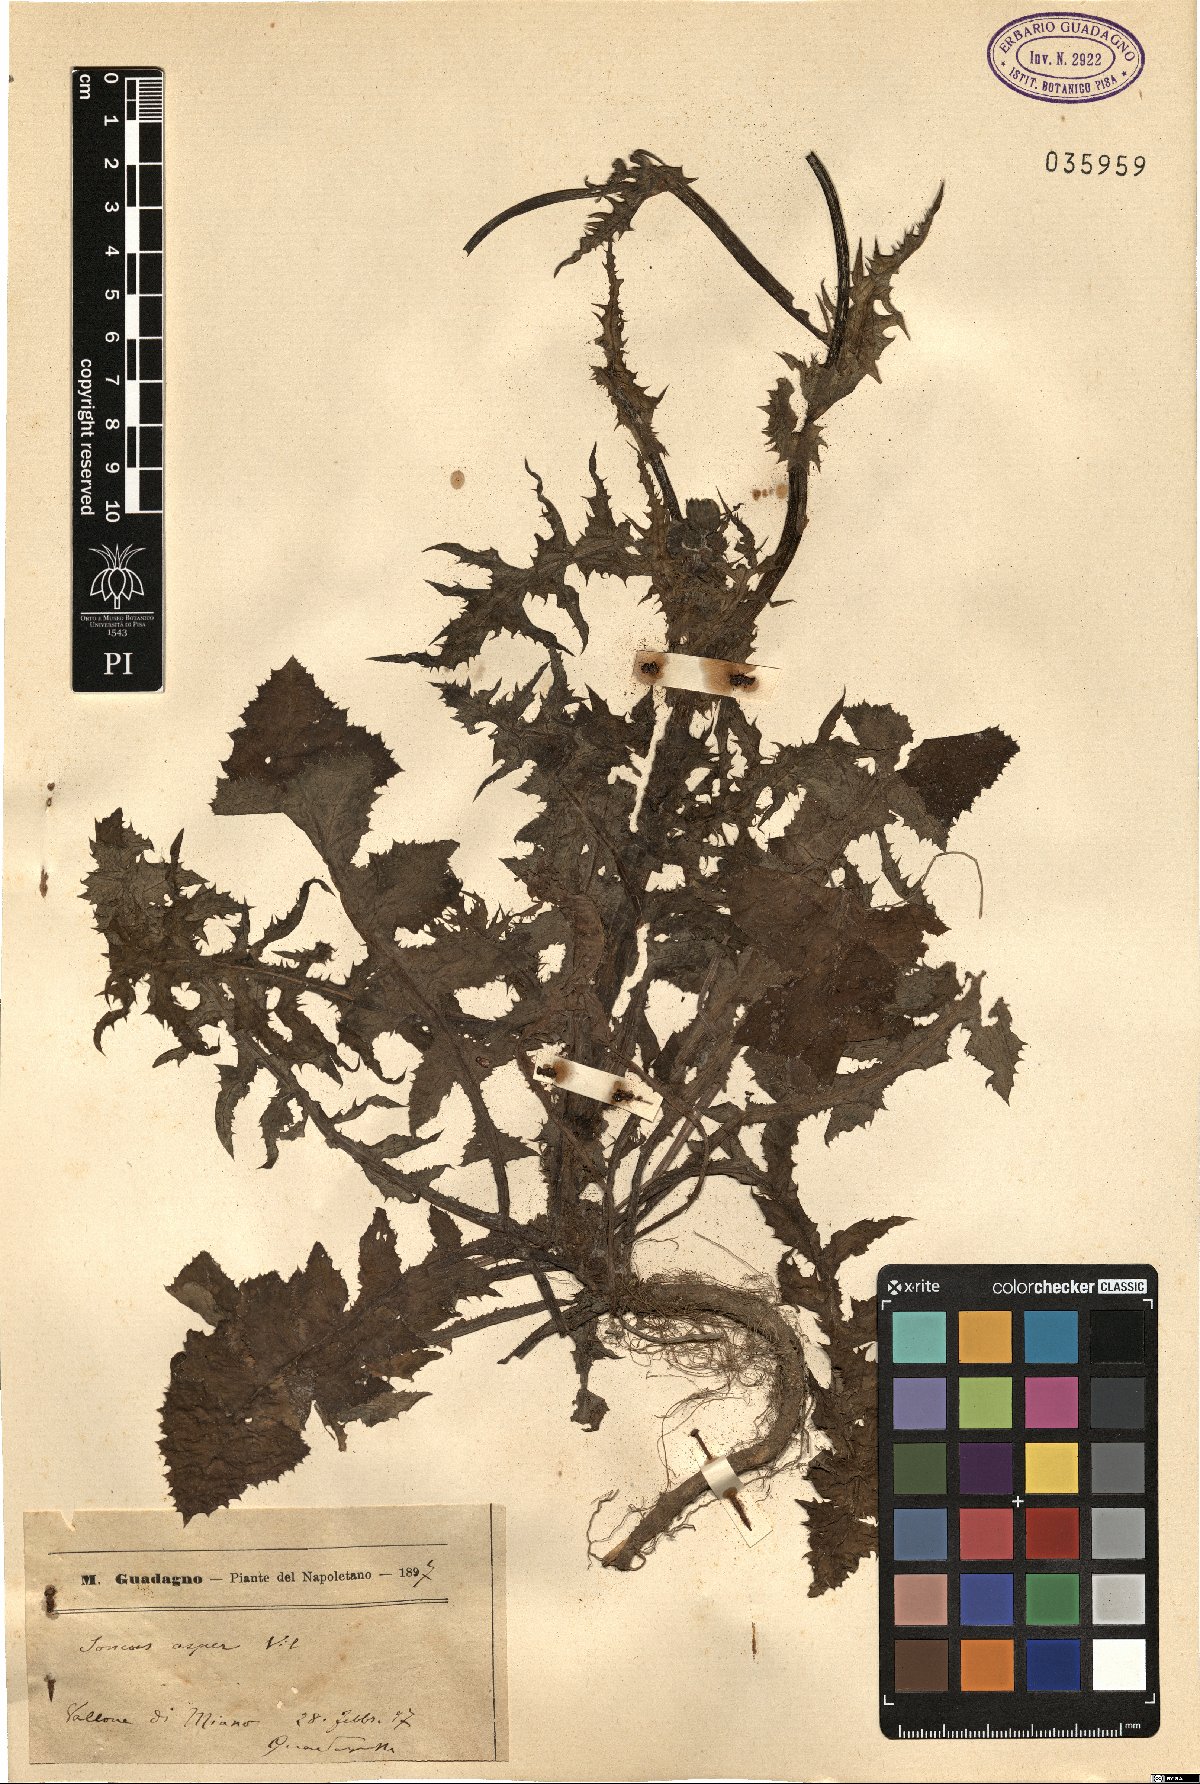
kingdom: Plantae
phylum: Tracheophyta
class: Magnoliopsida
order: Asterales
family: Asteraceae
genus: Sonchus
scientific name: Sonchus asper
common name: Prickly sow-thistle
